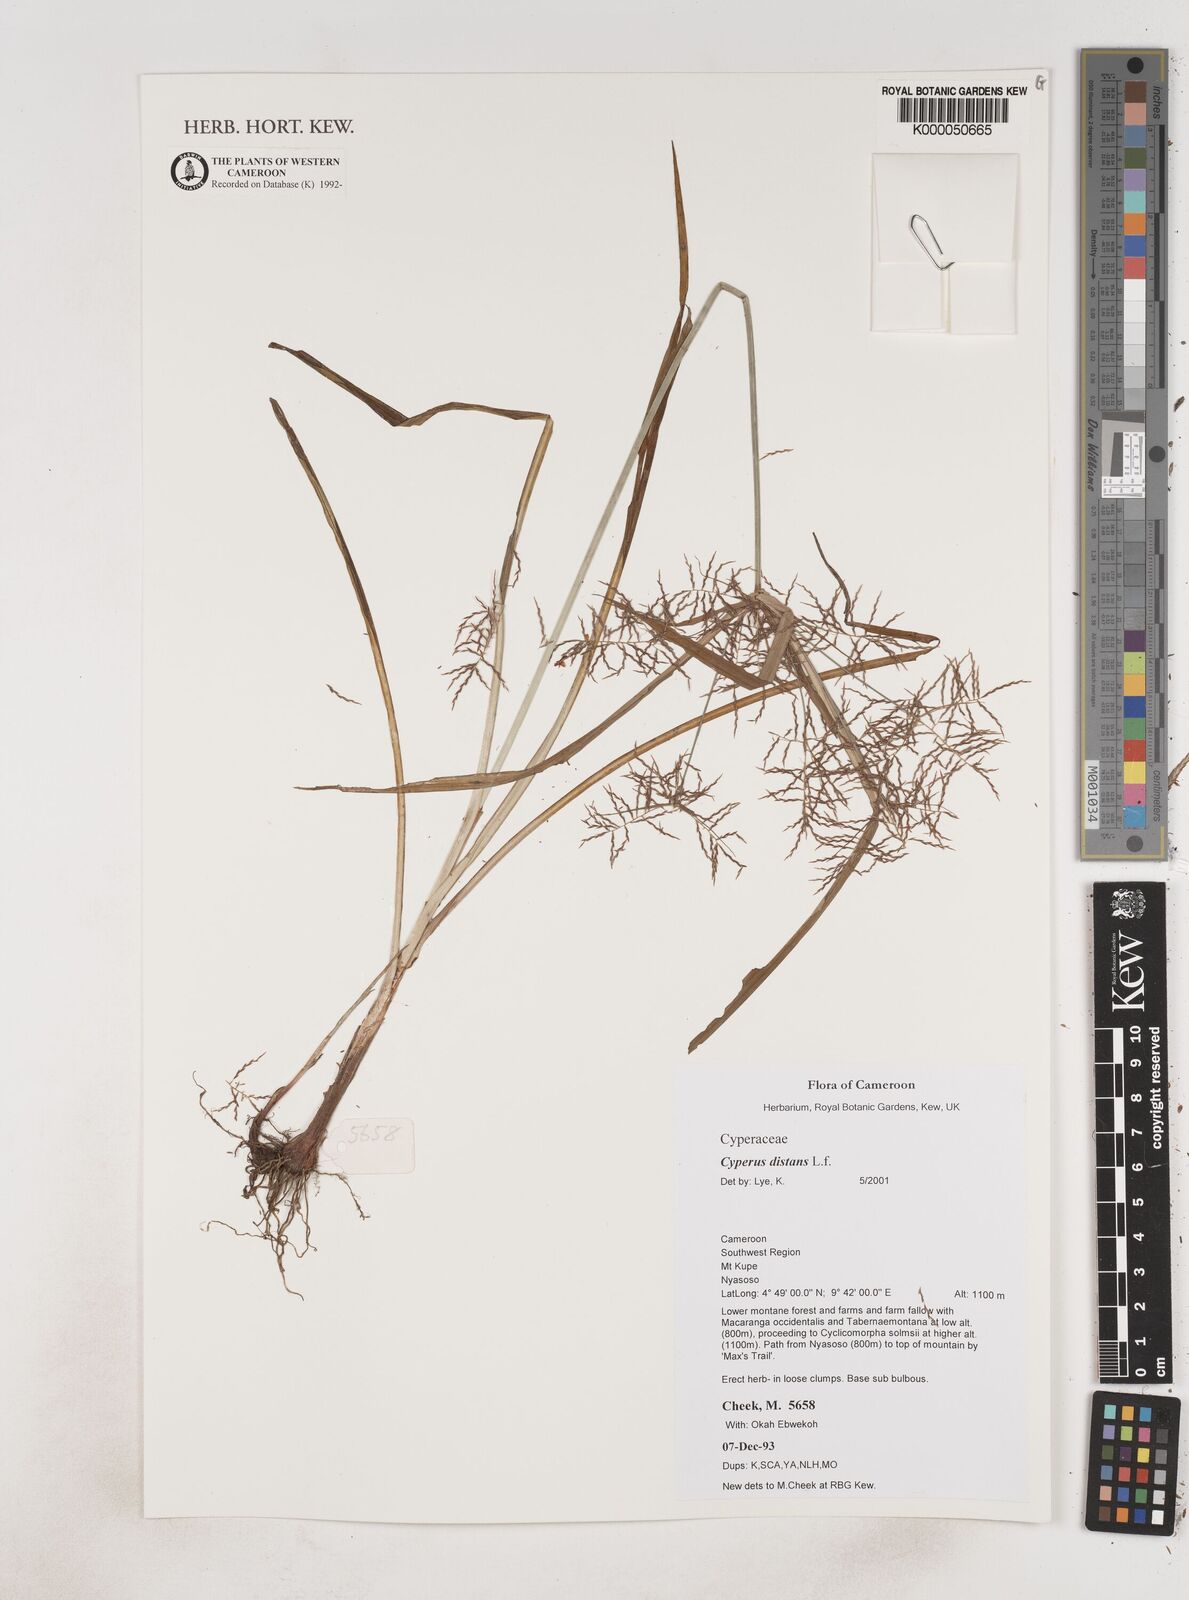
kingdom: Plantae
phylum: Tracheophyta
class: Liliopsida
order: Poales
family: Cyperaceae
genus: Cyperus
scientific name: Cyperus distans
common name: Slender cyperus
